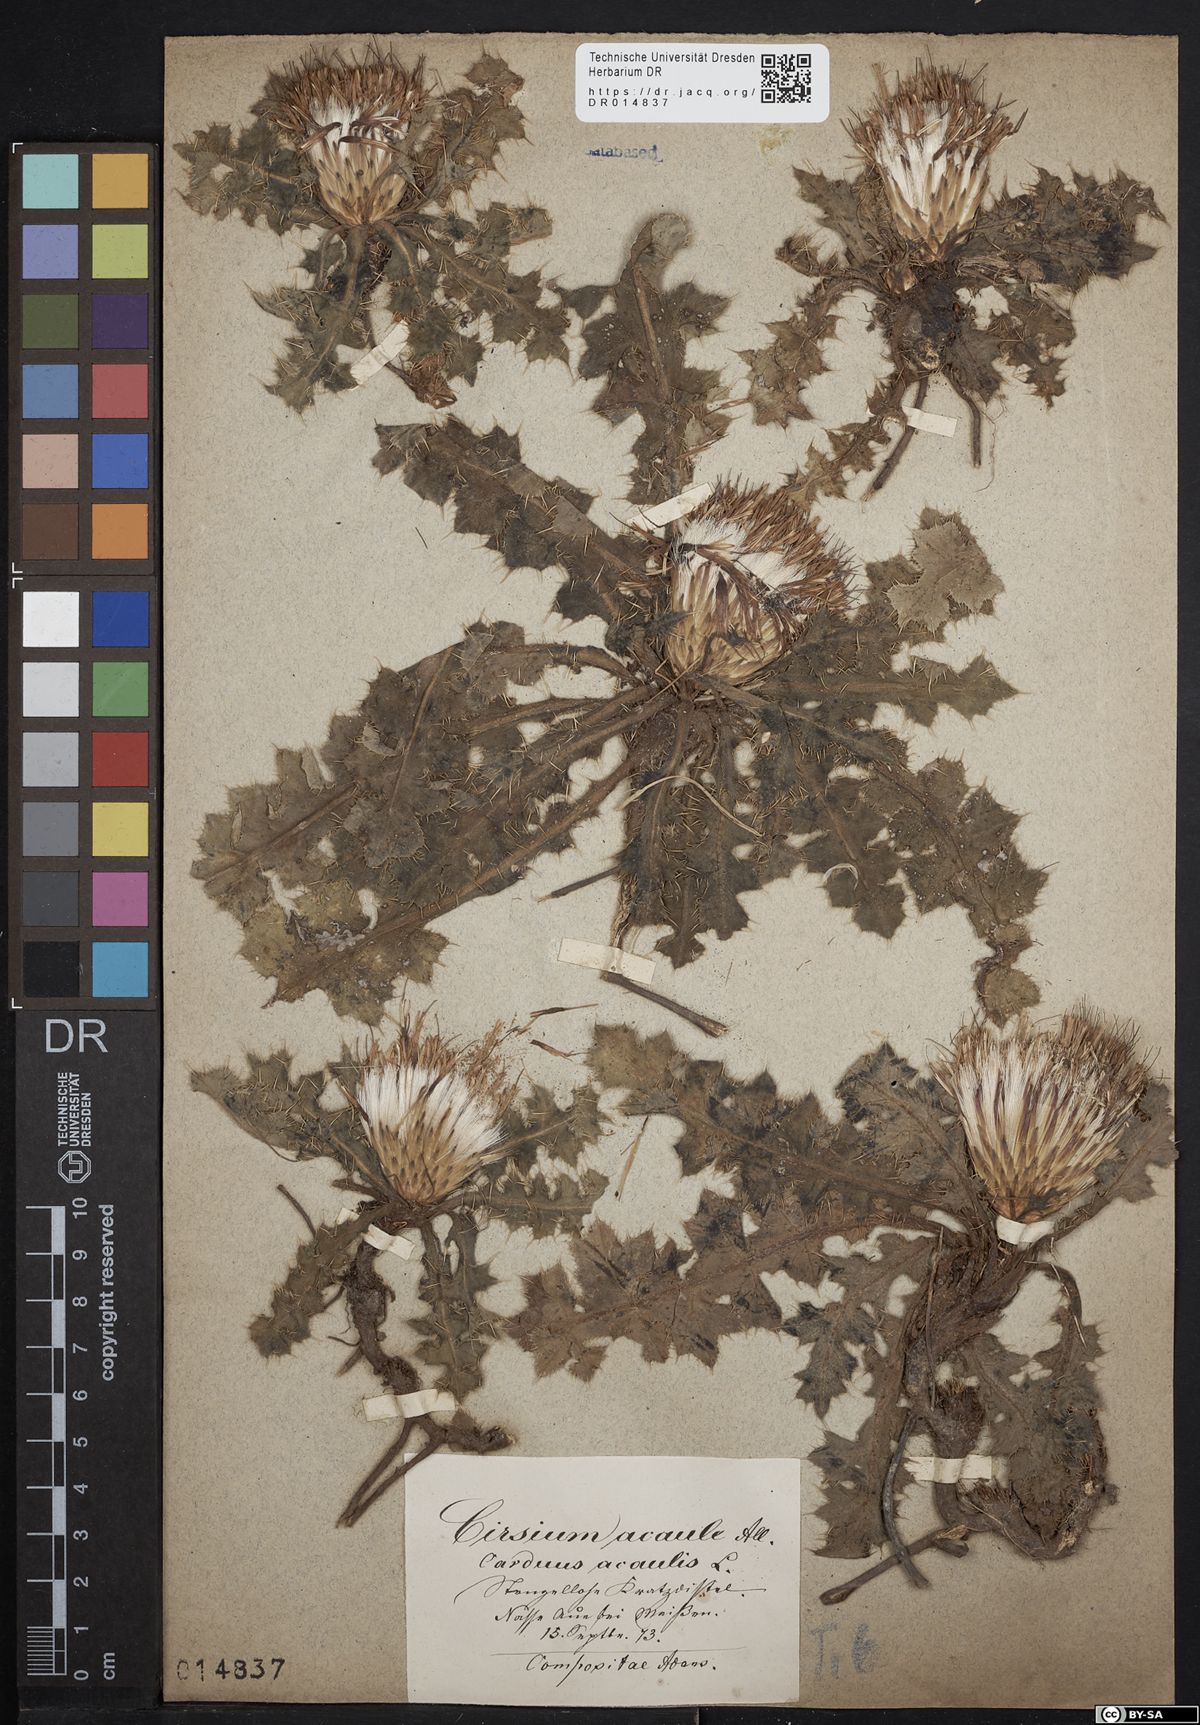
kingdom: Plantae
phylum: Tracheophyta
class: Magnoliopsida
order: Asterales
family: Asteraceae
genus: Cirsium
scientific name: Cirsium acaule
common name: Dwarf thistle
